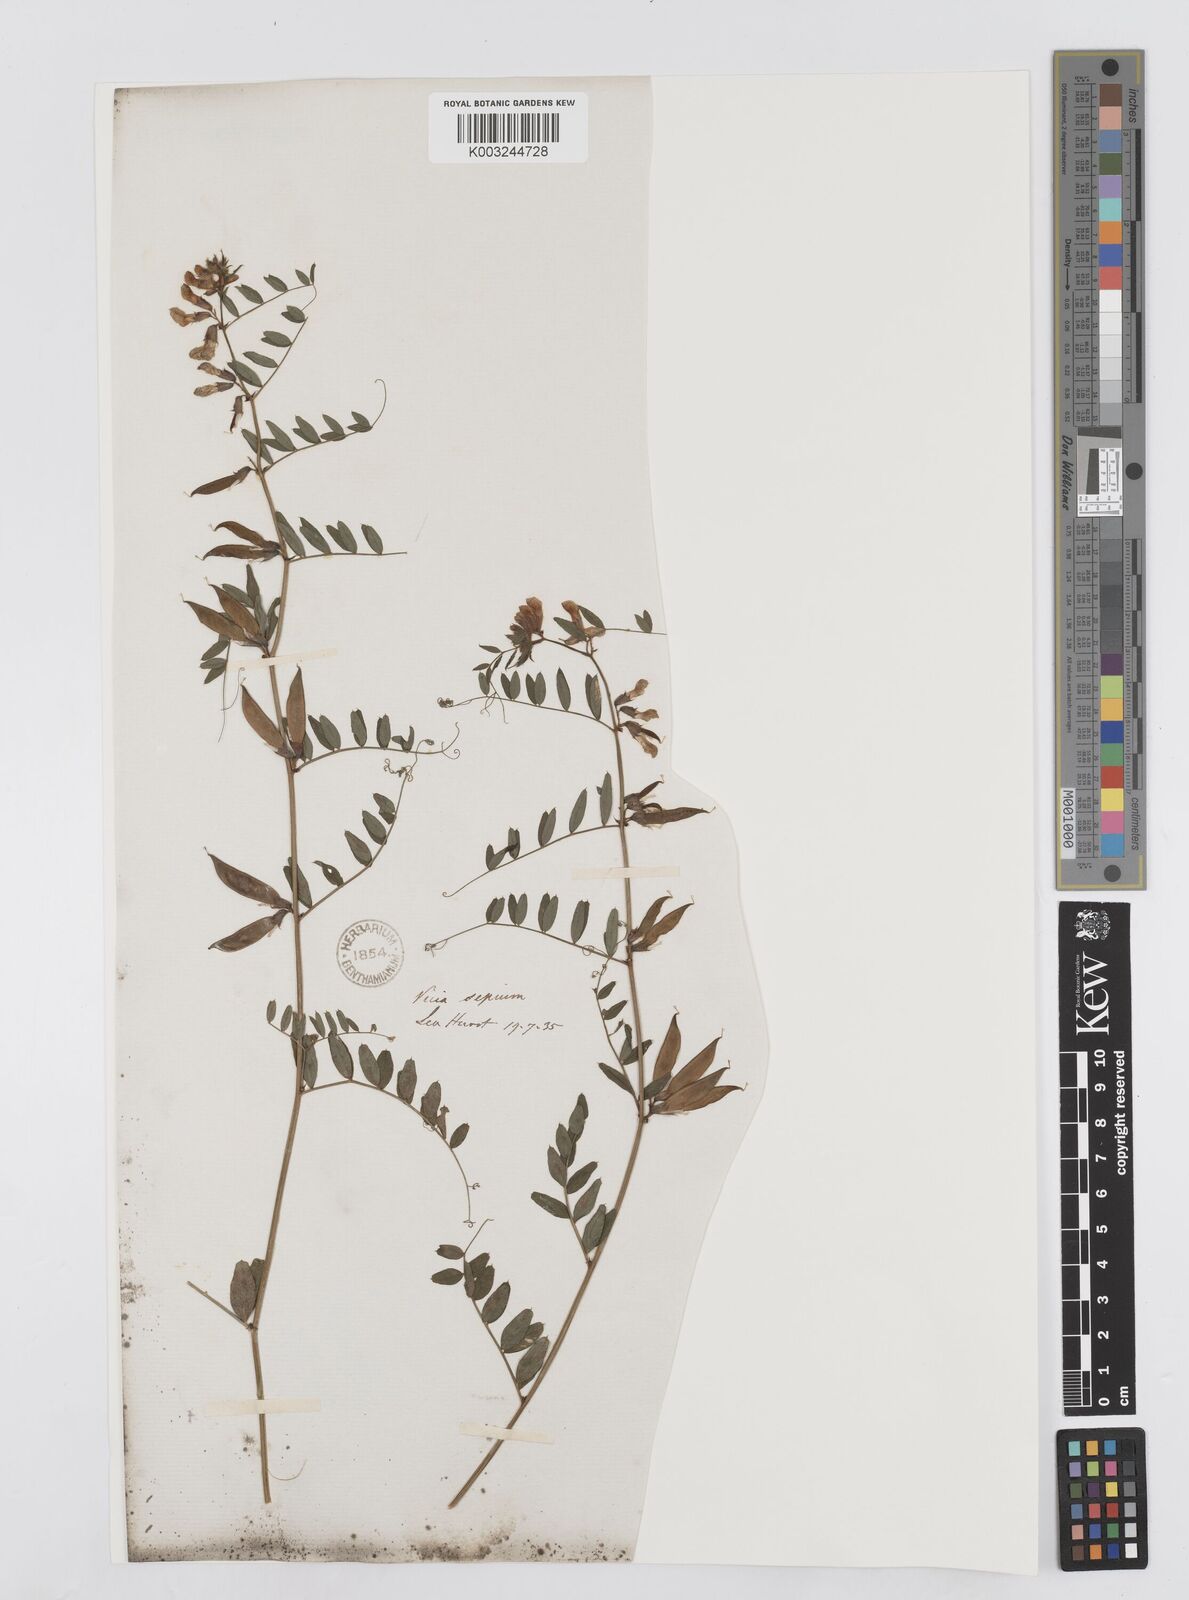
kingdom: Plantae
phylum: Tracheophyta
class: Magnoliopsida
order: Fabales
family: Fabaceae
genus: Vicia
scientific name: Vicia sepium
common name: Bush vetch
